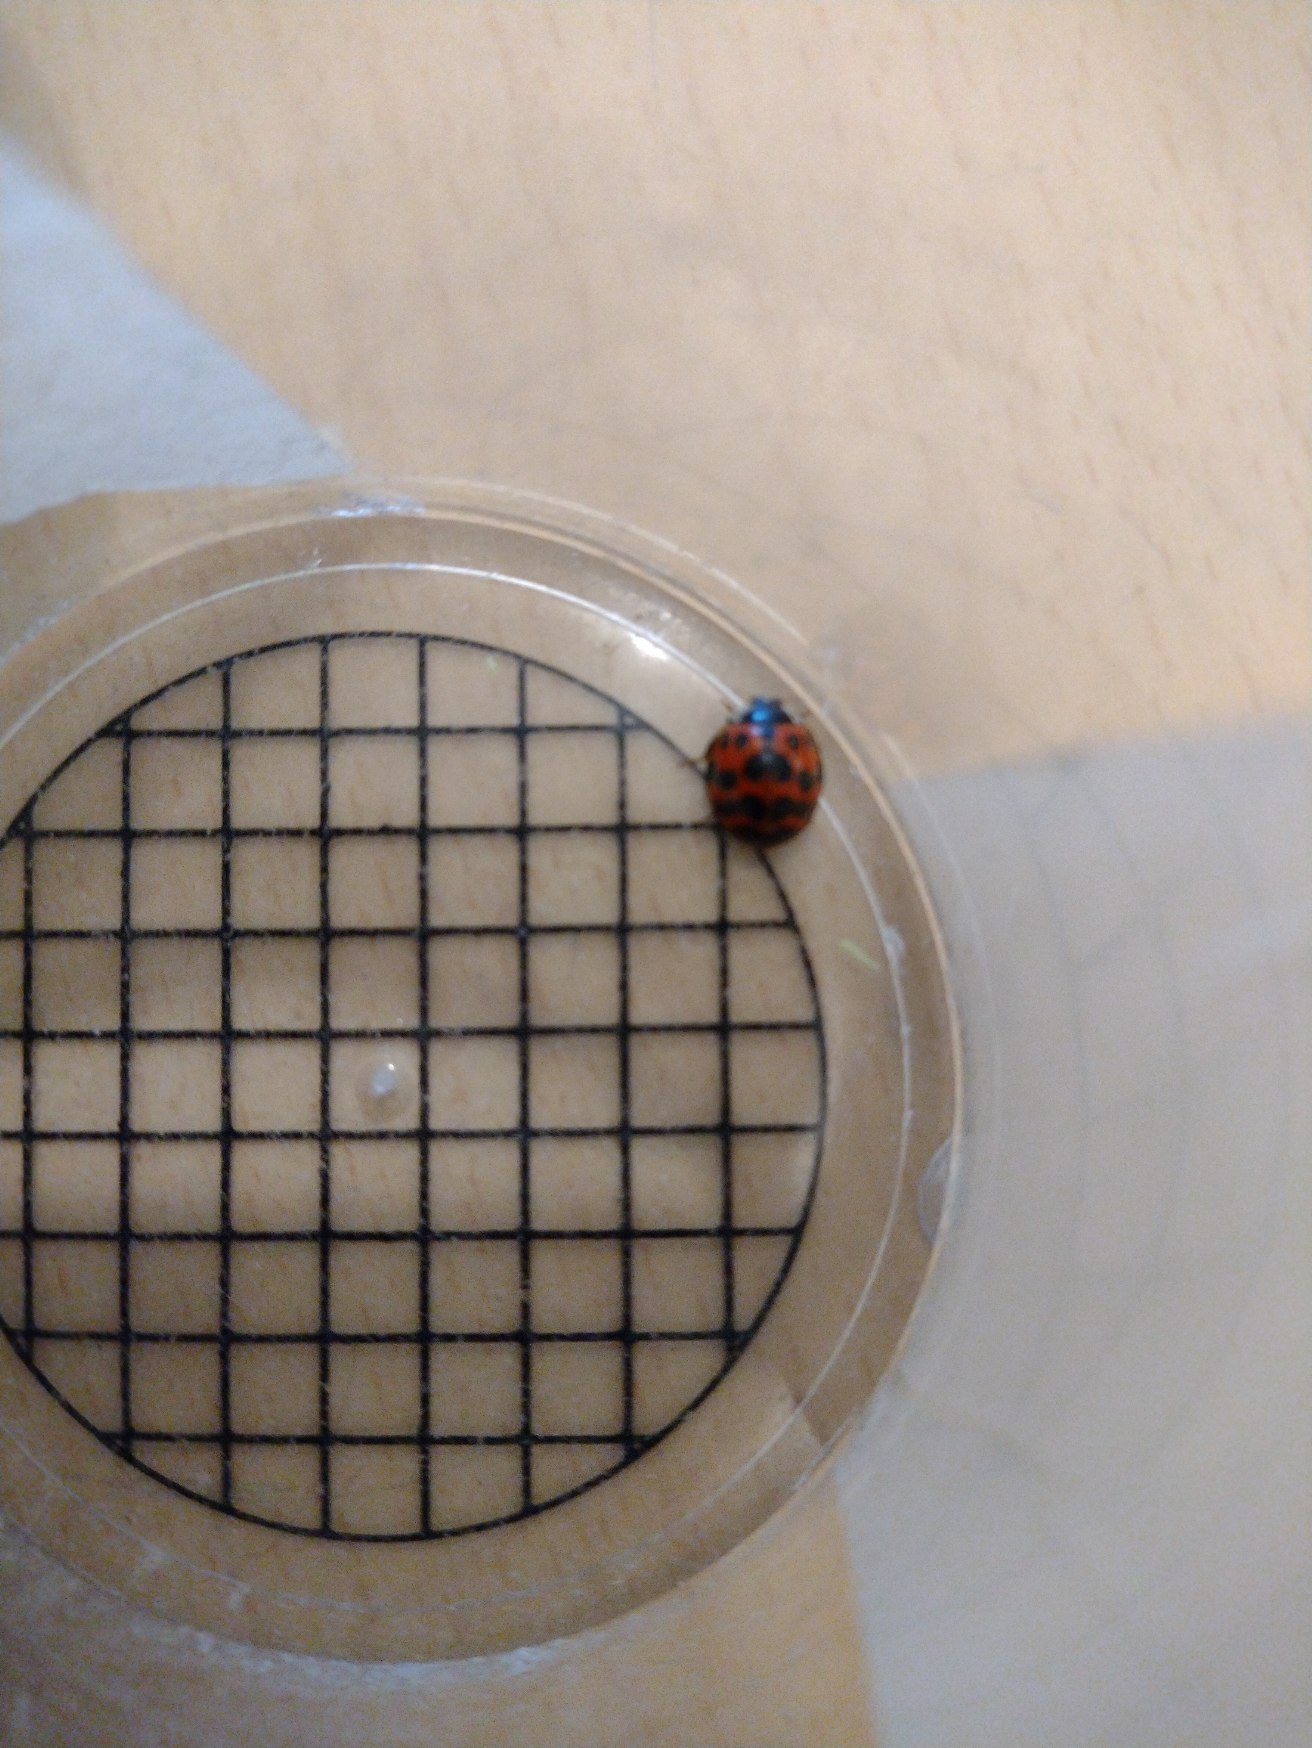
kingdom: Animalia
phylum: Arthropoda
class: Insecta
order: Coleoptera
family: Coccinellidae
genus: Harmonia
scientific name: Harmonia axyridis
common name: Harlekinmariehøne
